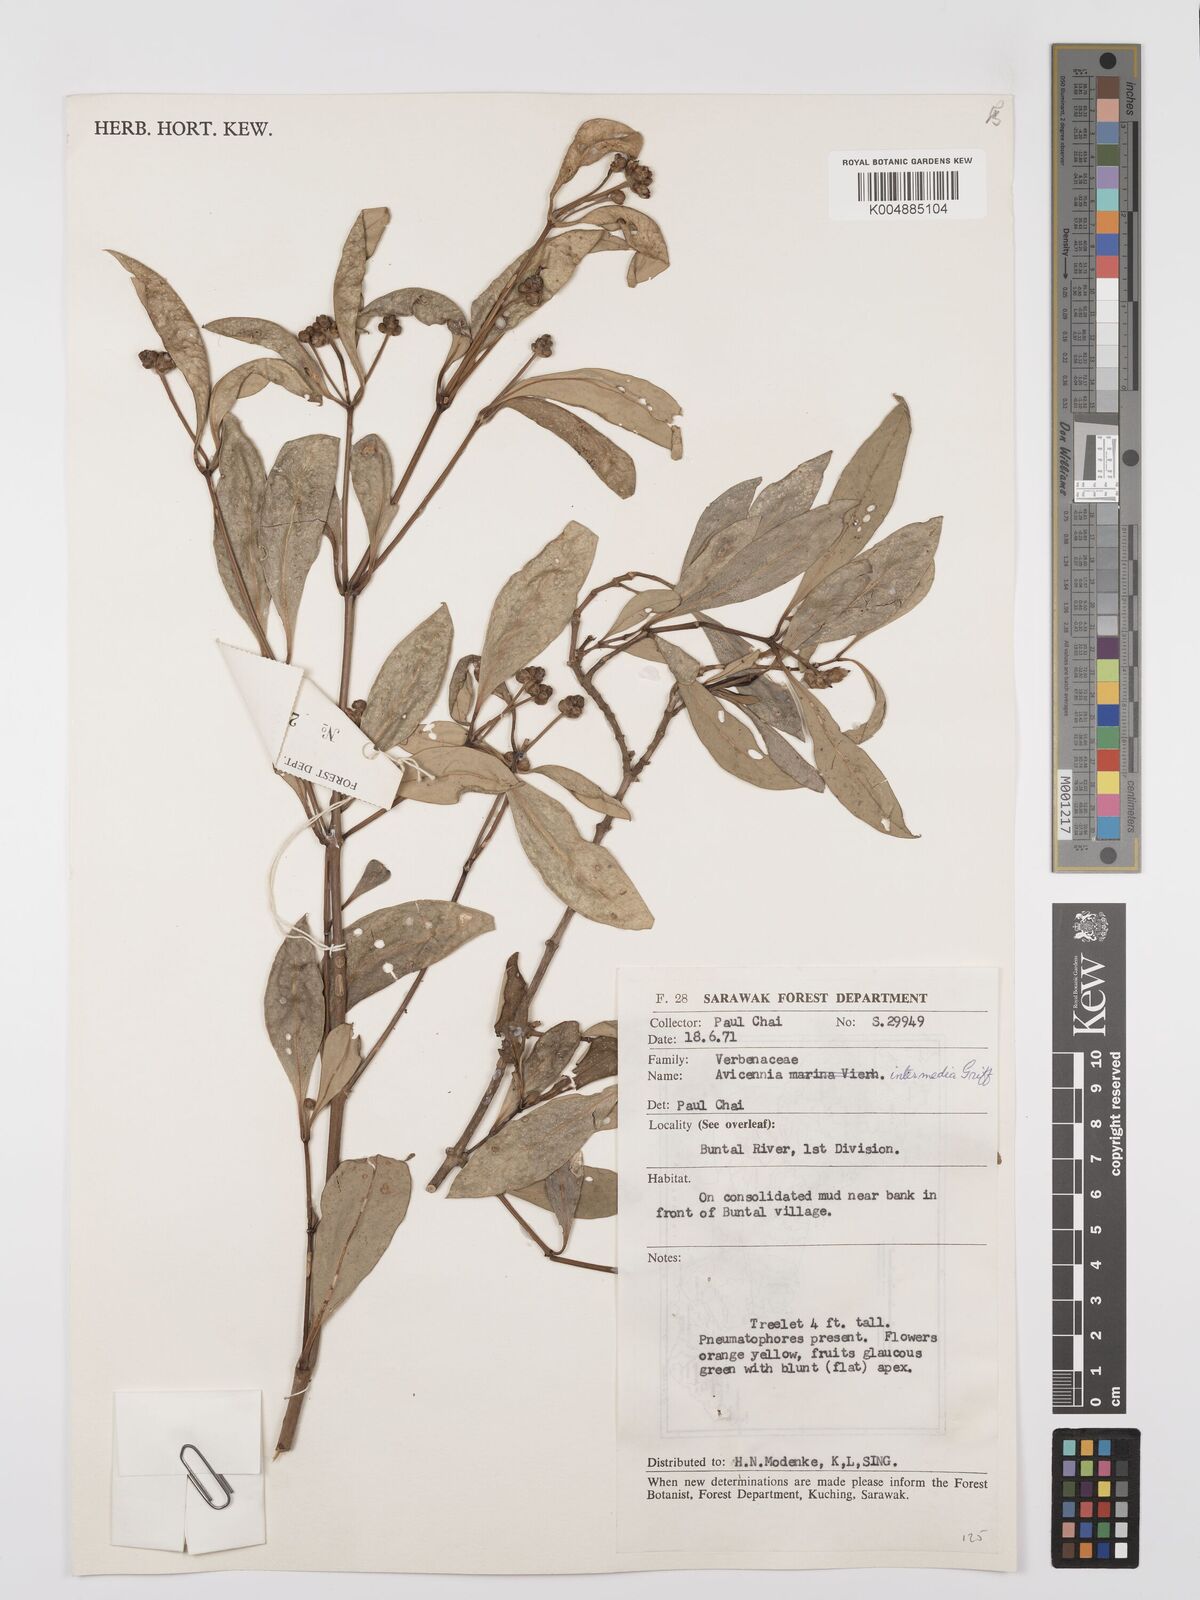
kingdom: Plantae
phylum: Tracheophyta
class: Magnoliopsida
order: Lamiales
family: Acanthaceae
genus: Avicennia
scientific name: Avicennia marina
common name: Gray mangrove
